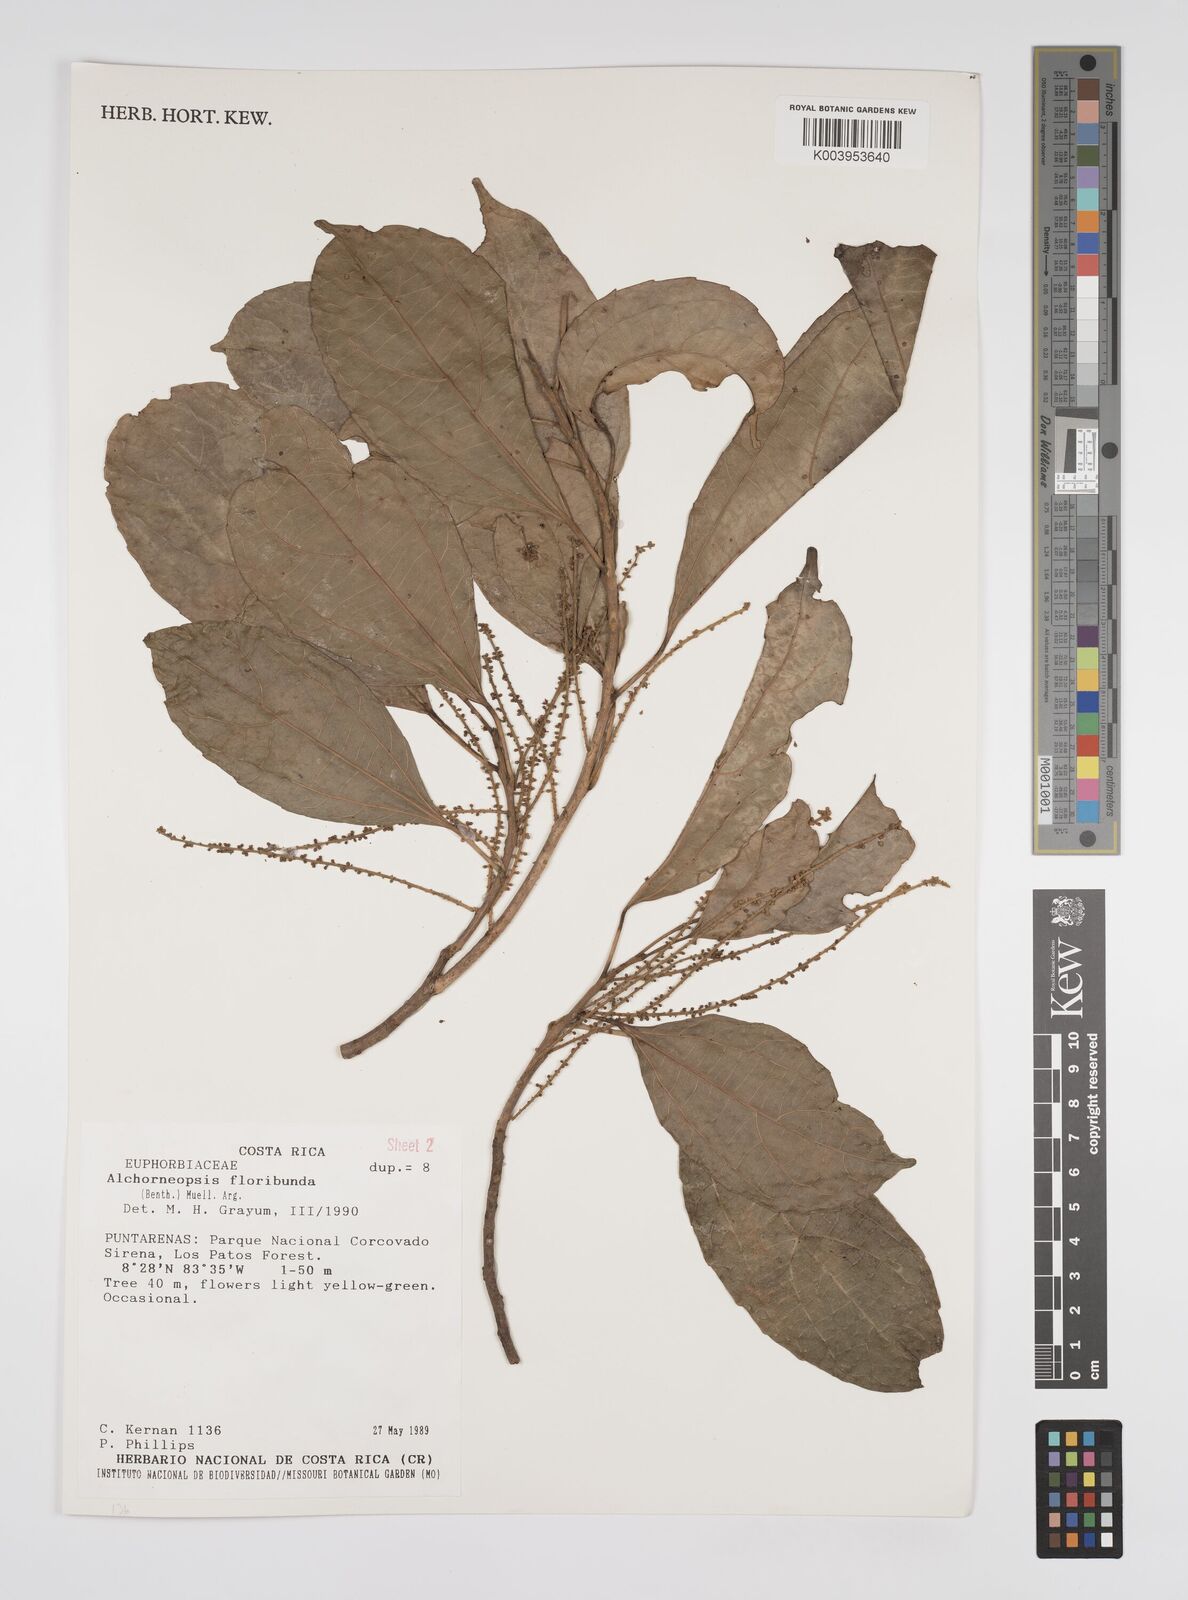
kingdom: Plantae
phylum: Tracheophyta
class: Magnoliopsida
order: Malpighiales
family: Euphorbiaceae
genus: Alchorneopsis
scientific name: Alchorneopsis floribunda
